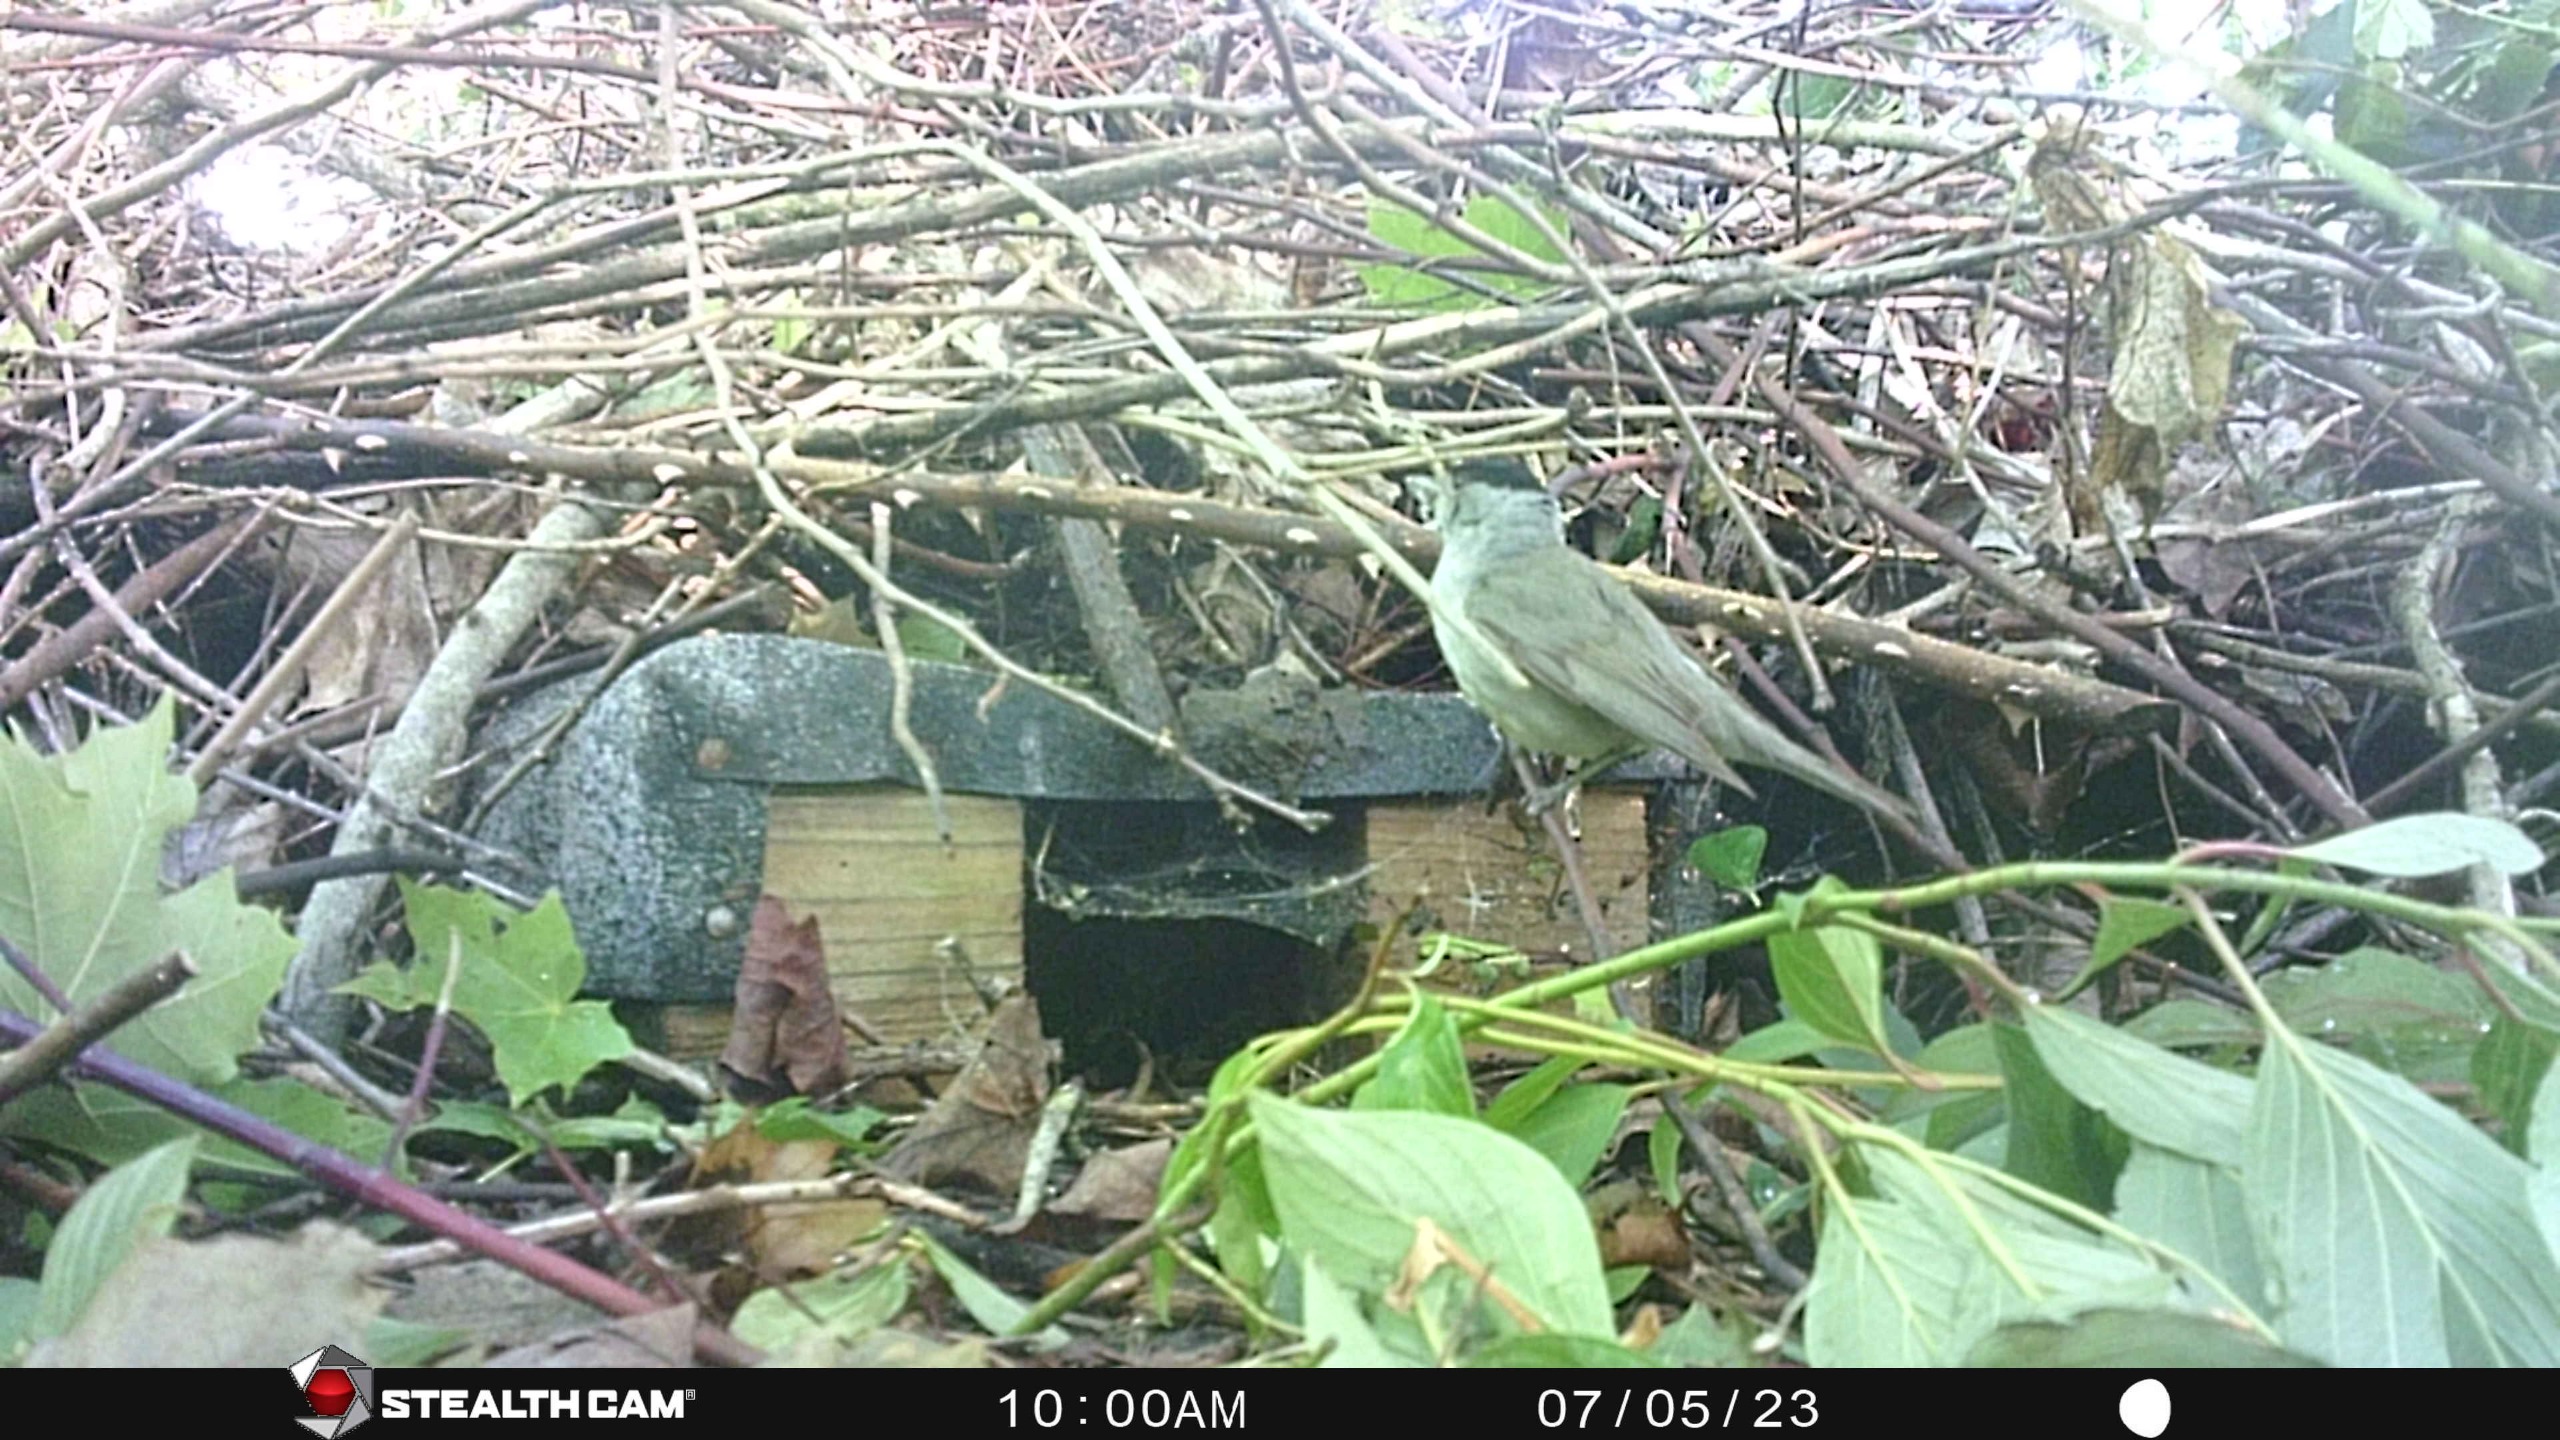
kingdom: Animalia
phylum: Chordata
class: Aves
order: Passeriformes
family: Sylviidae
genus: Sylvia
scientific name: Sylvia atricapilla
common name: Munk
